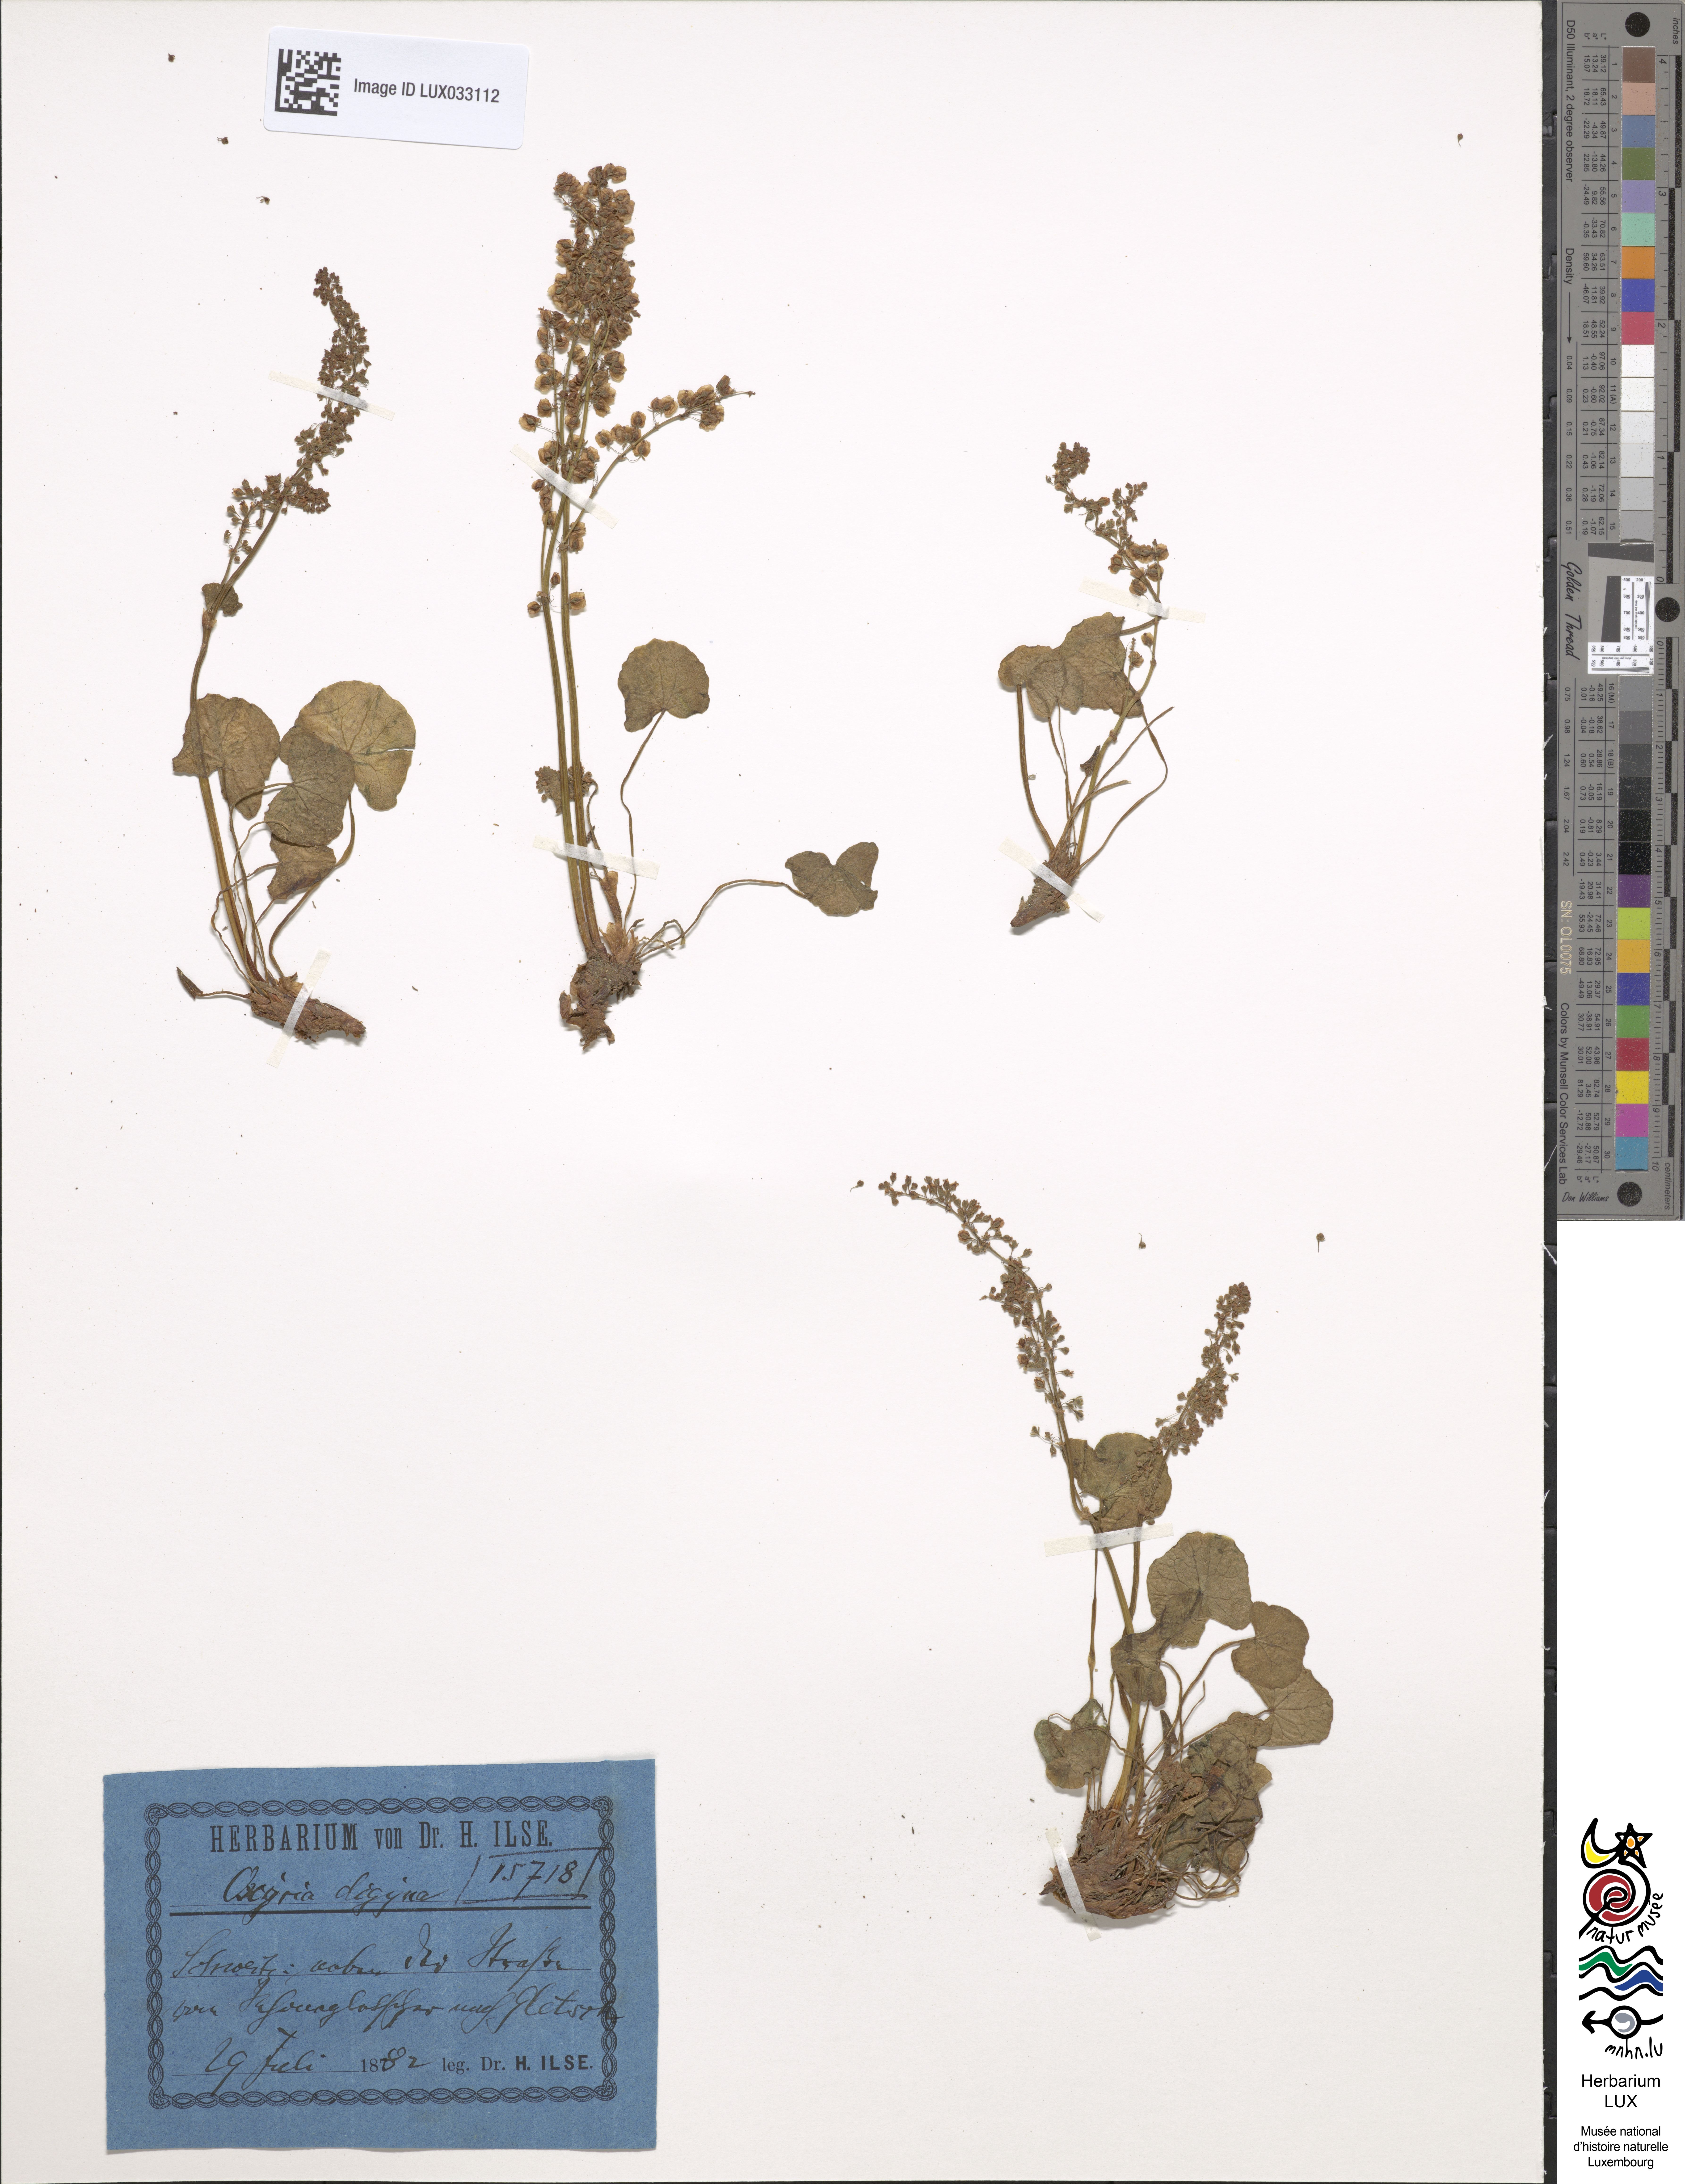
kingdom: Plantae
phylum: Tracheophyta
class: Magnoliopsida
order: Caryophyllales
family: Polygonaceae
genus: Oxyria
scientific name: Oxyria digyna
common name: Alpine mountain-sorrel
